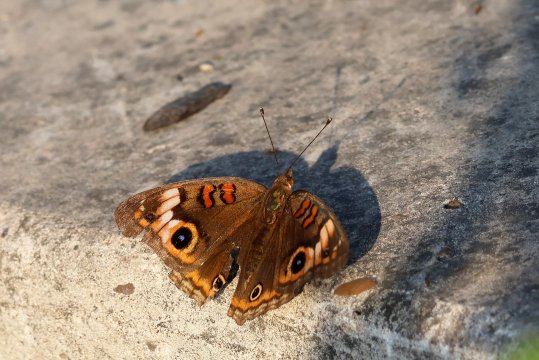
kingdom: Animalia
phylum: Arthropoda
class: Insecta
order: Lepidoptera
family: Nymphalidae
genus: Junonia
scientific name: Junonia evarete
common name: Mangrove Buckeye
